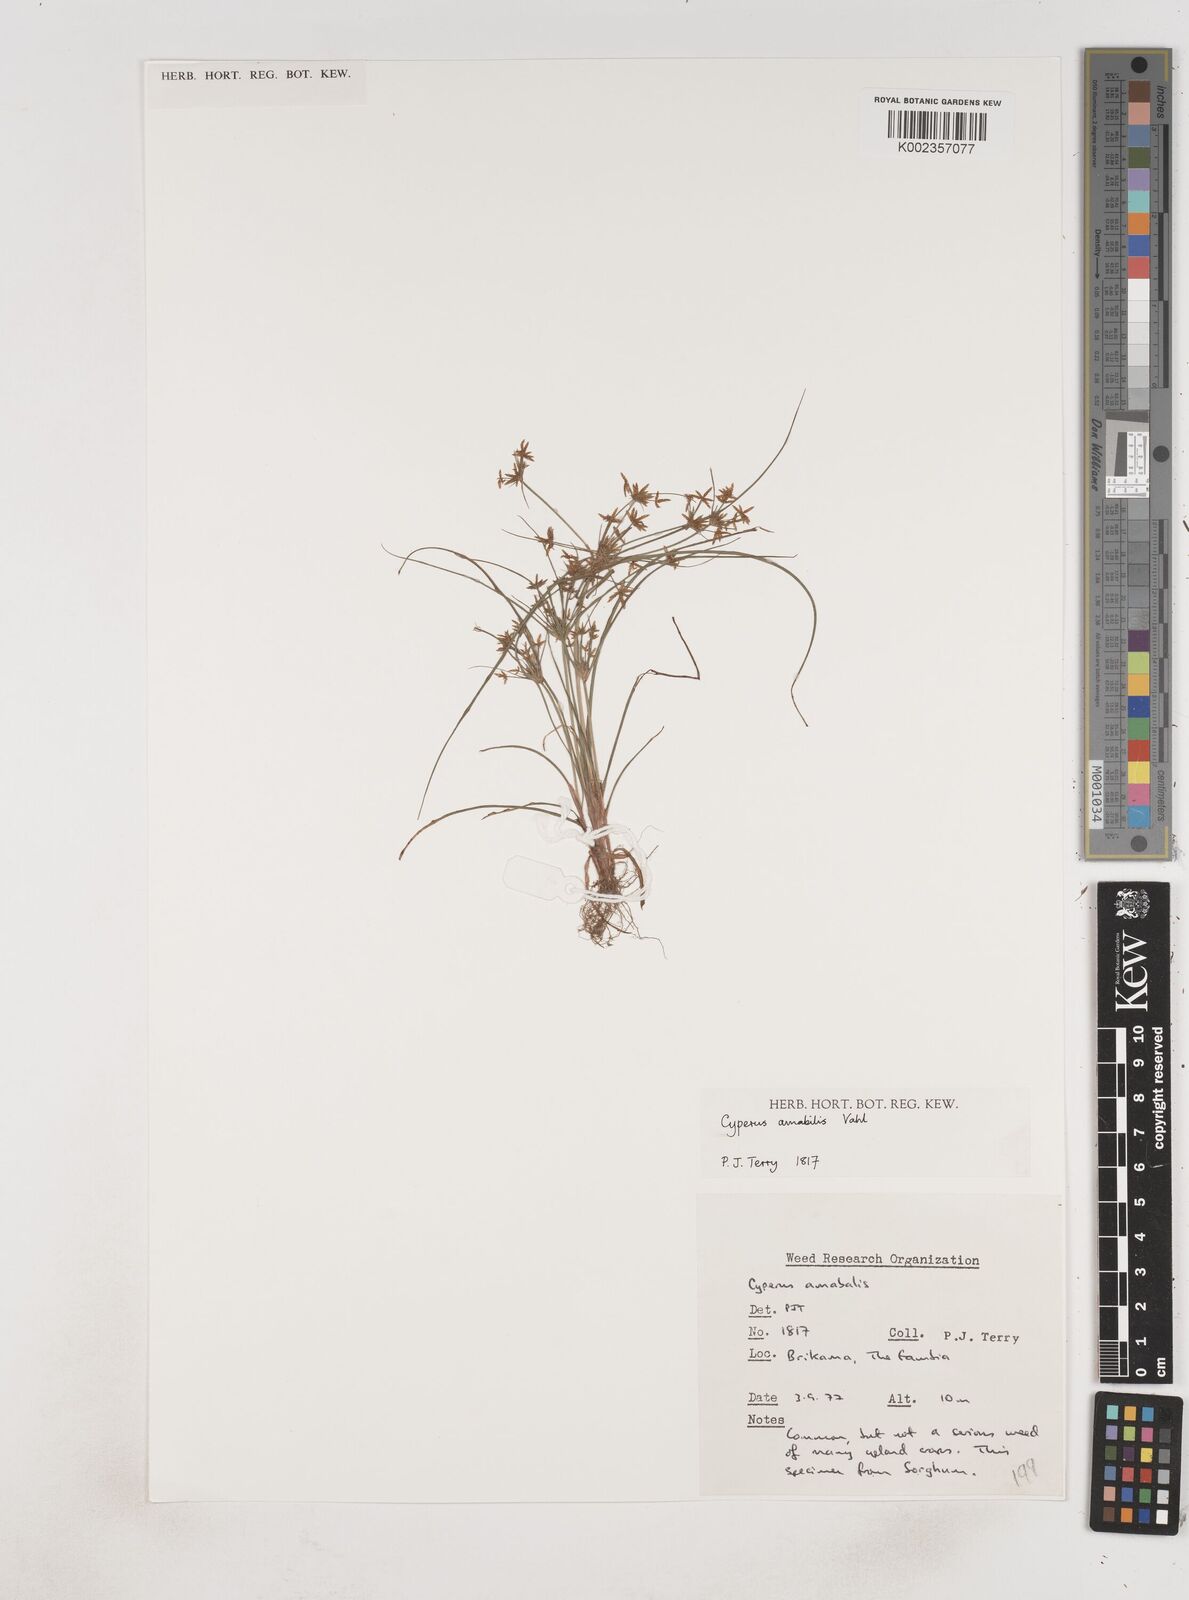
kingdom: Plantae
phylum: Tracheophyta
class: Liliopsida
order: Poales
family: Cyperaceae
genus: Cyperus
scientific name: Cyperus amabilis
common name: Foothill flat sedge
